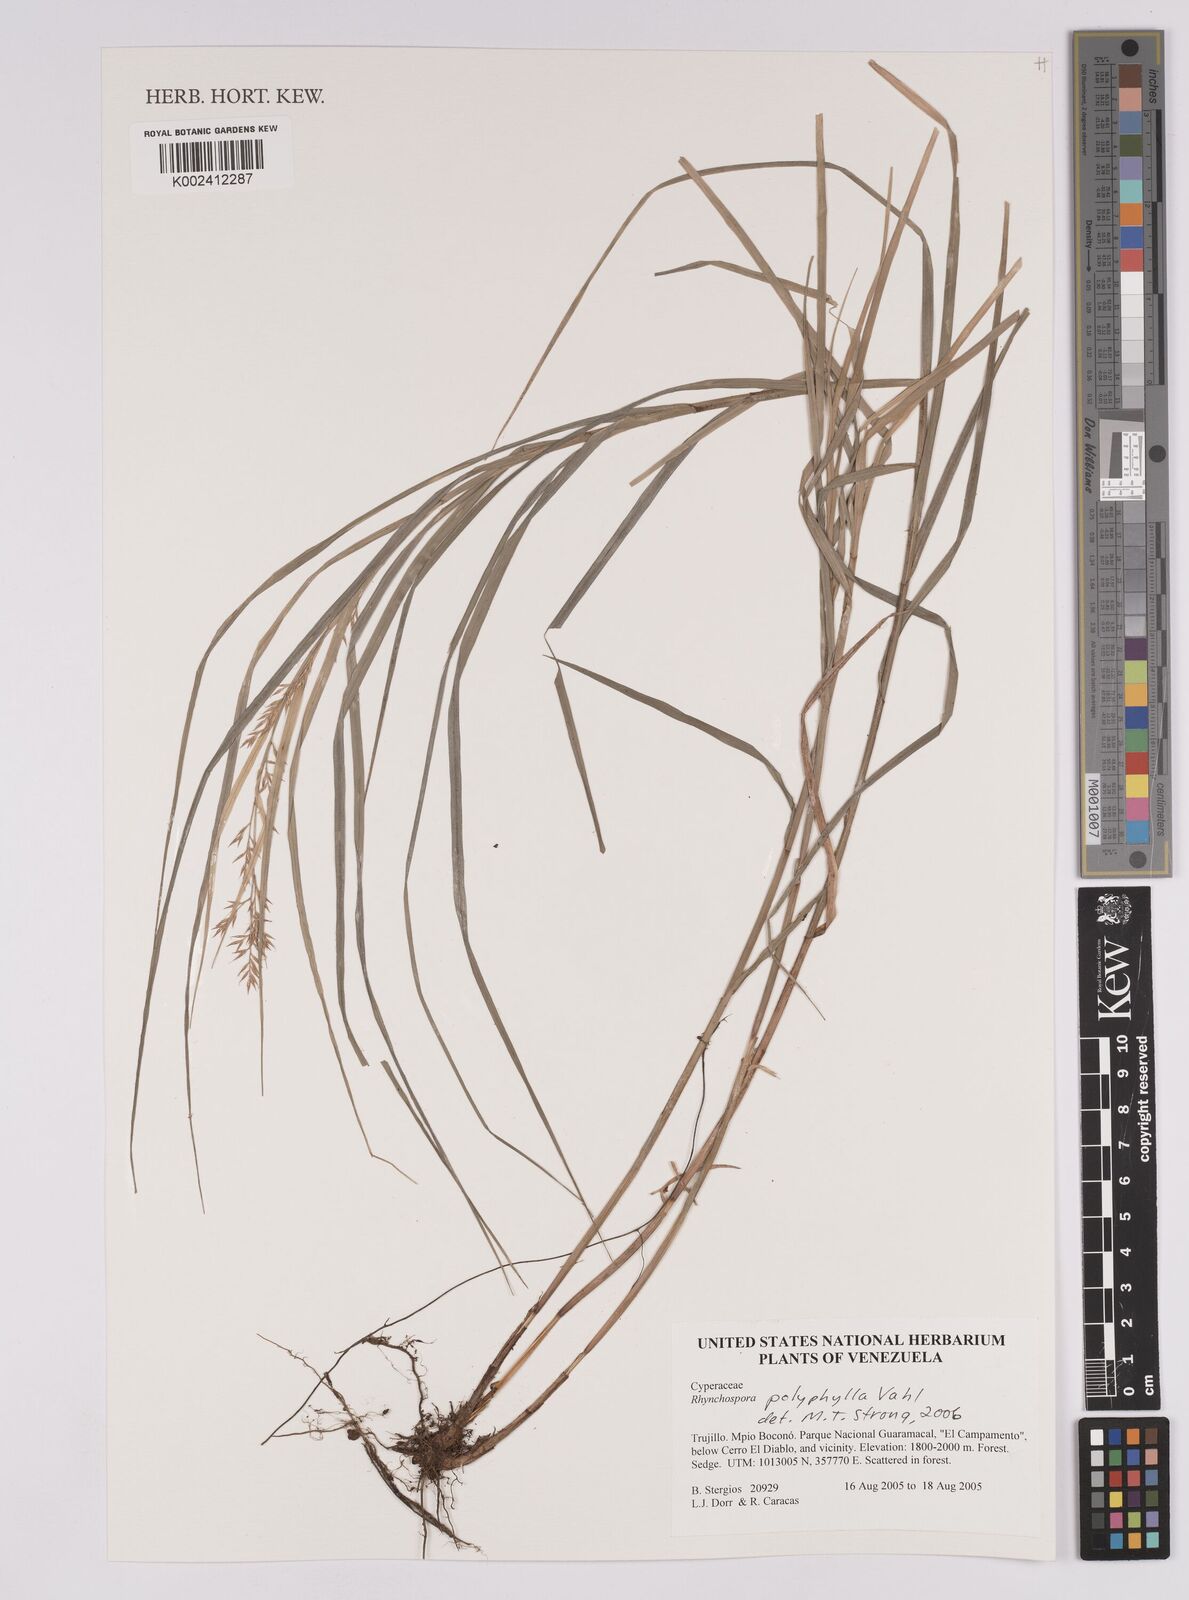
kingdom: Plantae
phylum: Tracheophyta
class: Liliopsida
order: Poales
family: Cyperaceae
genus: Rhynchospora
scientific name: Rhynchospora polyphylla
